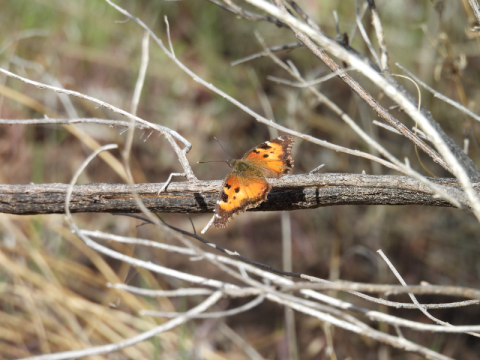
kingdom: Animalia
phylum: Arthropoda
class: Insecta
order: Lepidoptera
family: Nymphalidae
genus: Nymphalis
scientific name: Nymphalis californica
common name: California Tortoiseshell
